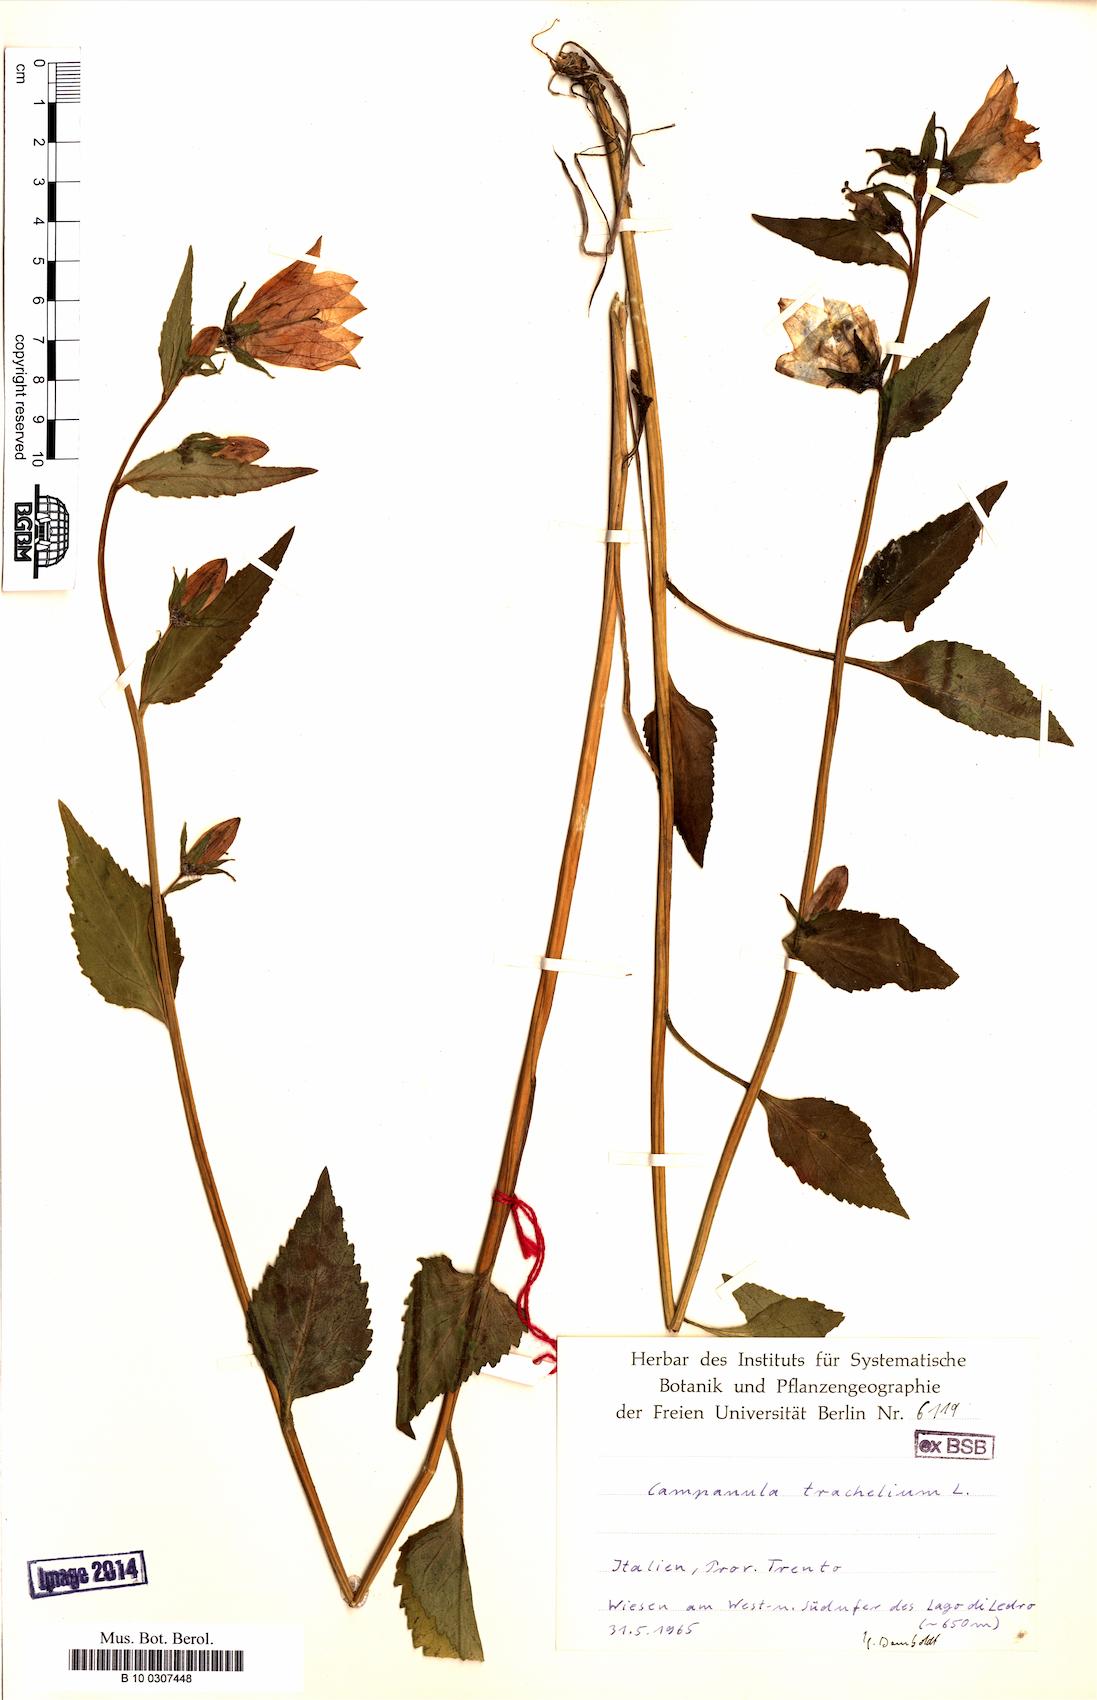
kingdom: Plantae
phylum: Tracheophyta
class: Magnoliopsida
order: Asterales
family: Campanulaceae
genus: Campanula
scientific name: Campanula trachelium
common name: Nettle-leaved bellflower
